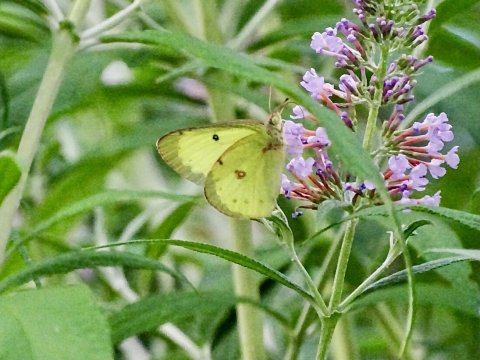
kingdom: Animalia
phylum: Arthropoda
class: Insecta
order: Lepidoptera
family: Pieridae
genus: Colias
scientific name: Colias philodice
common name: Clouded Sulphur
